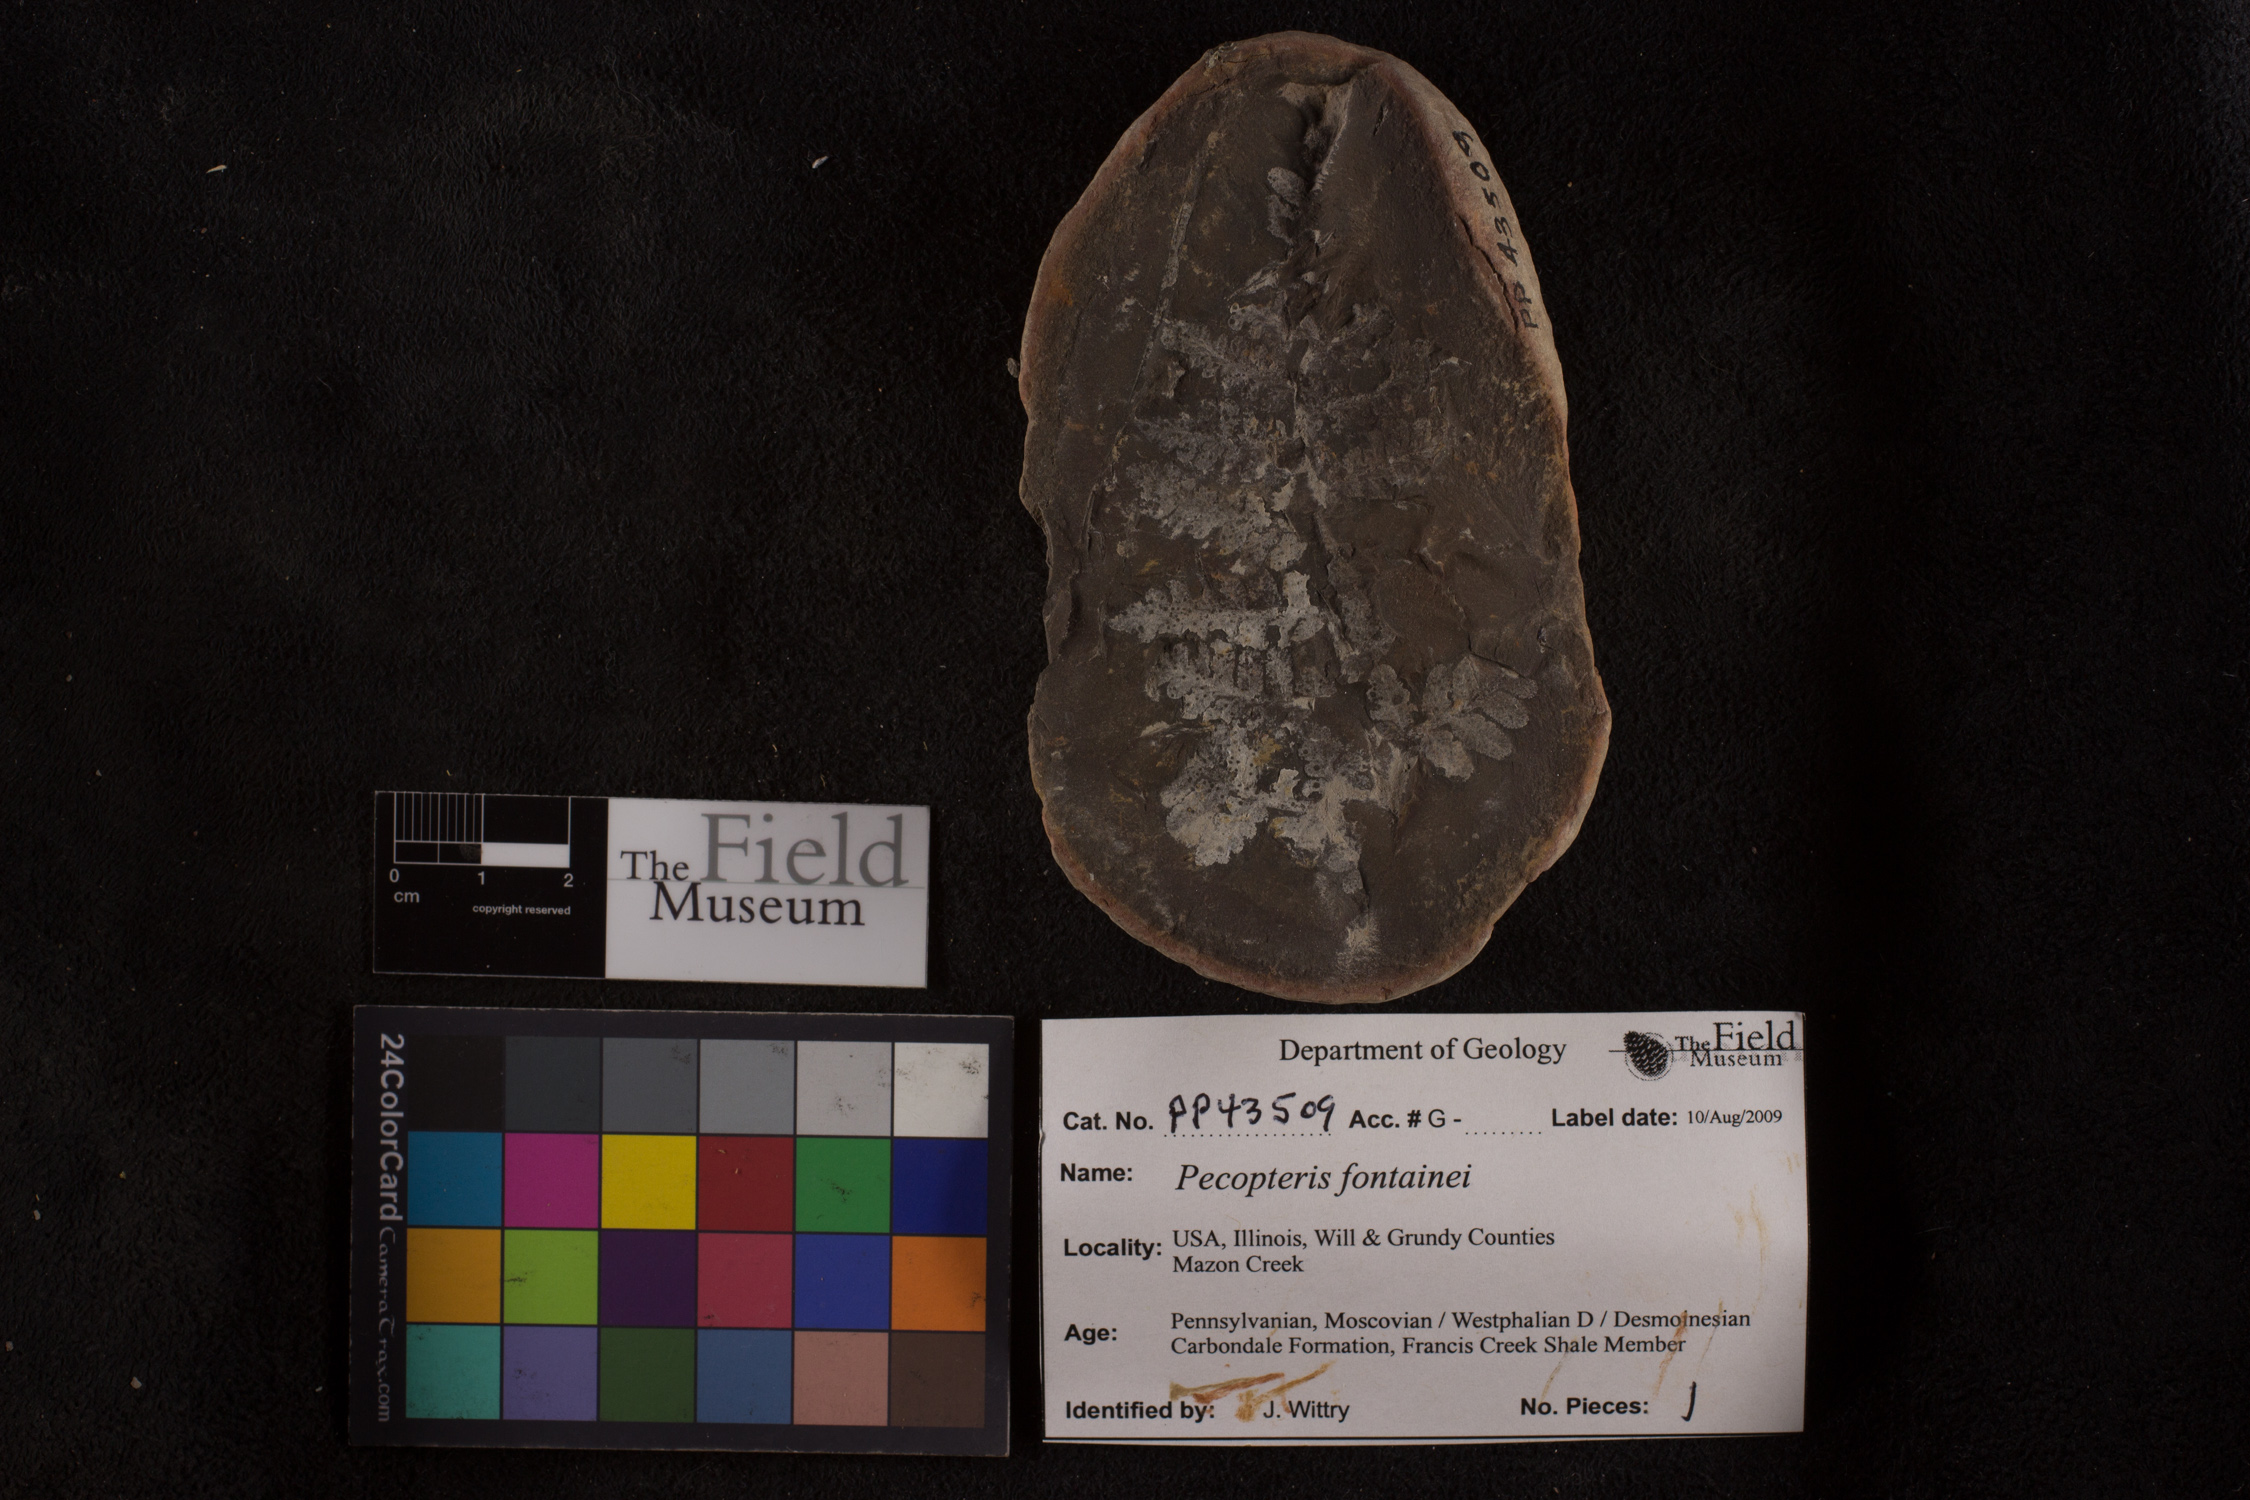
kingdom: Plantae
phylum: Tracheophyta
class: Polypodiopsida
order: Marattiales
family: Asterothecaceae
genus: Pecopteris
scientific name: Pecopteris
